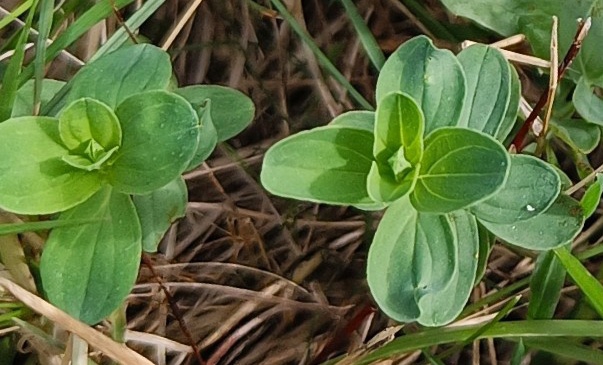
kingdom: Plantae
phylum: Tracheophyta
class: Magnoliopsida
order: Malpighiales
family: Hypericaceae
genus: Hypericum
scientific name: Hypericum
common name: Perikonslægten
